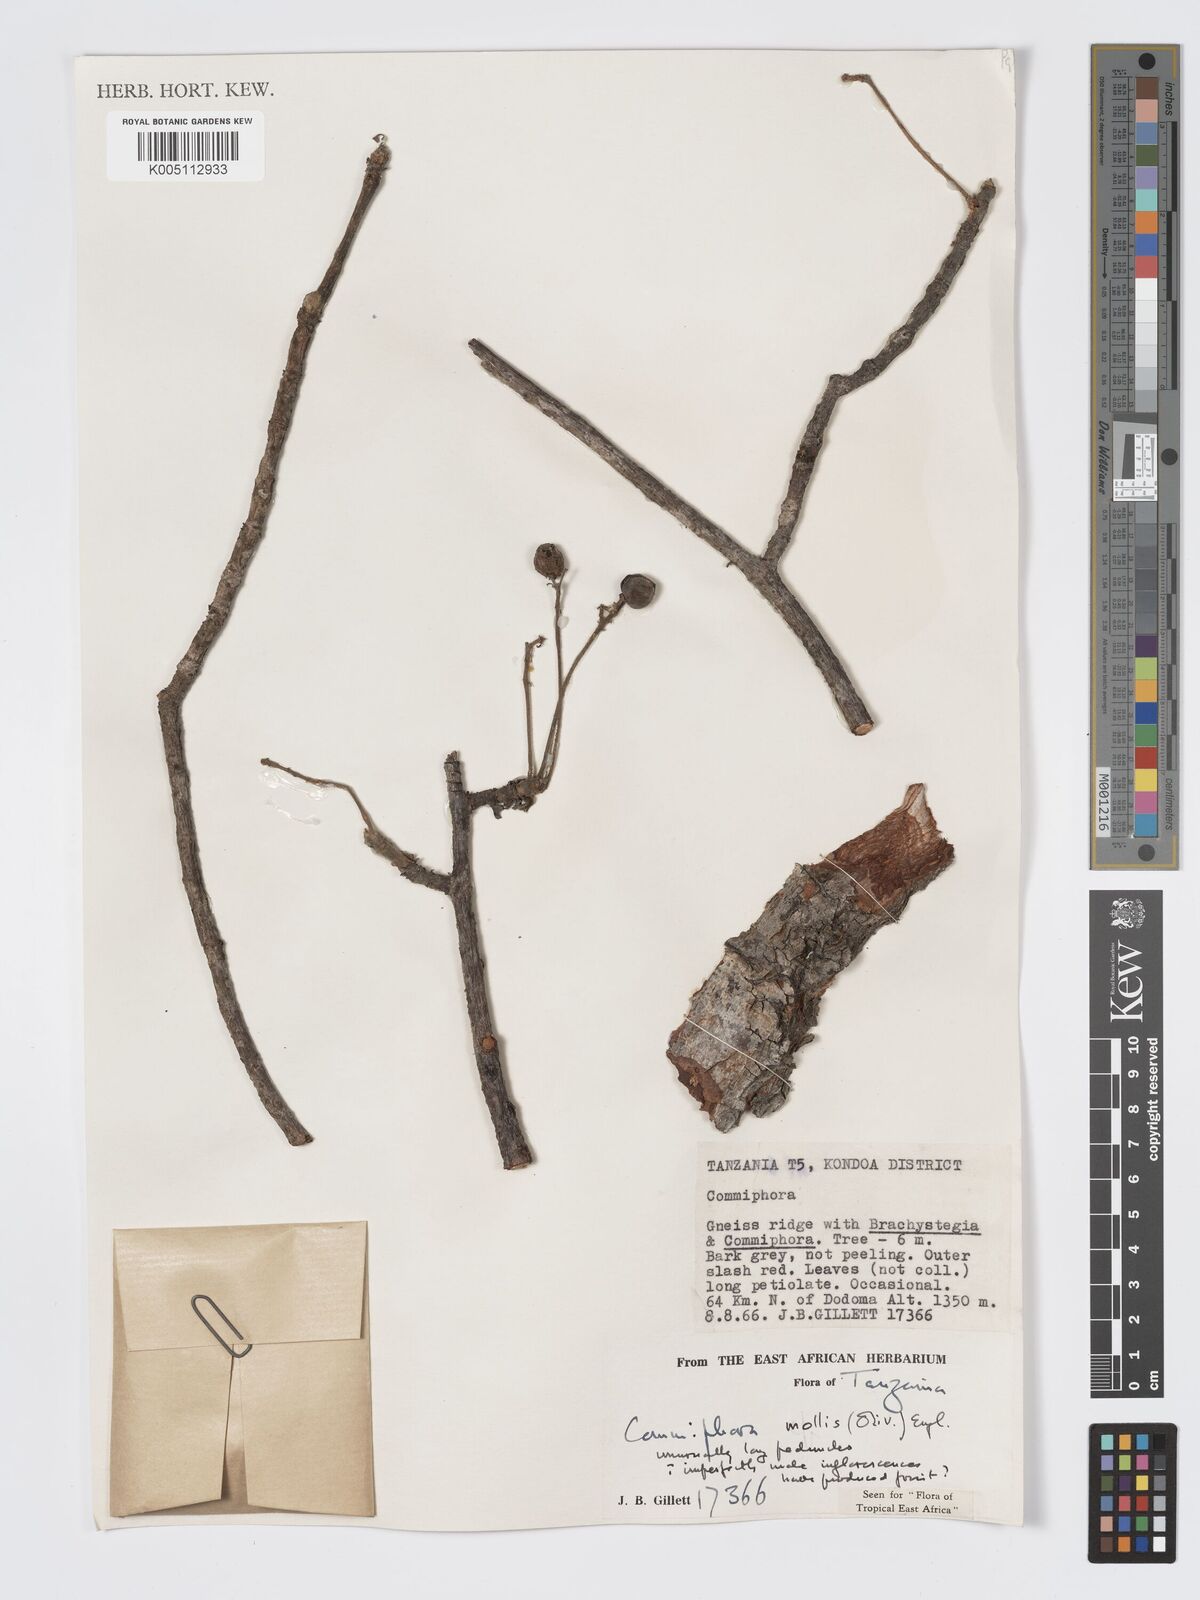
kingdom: Plantae
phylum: Tracheophyta
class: Magnoliopsida
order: Sapindales
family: Burseraceae
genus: Commiphora
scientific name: Commiphora
